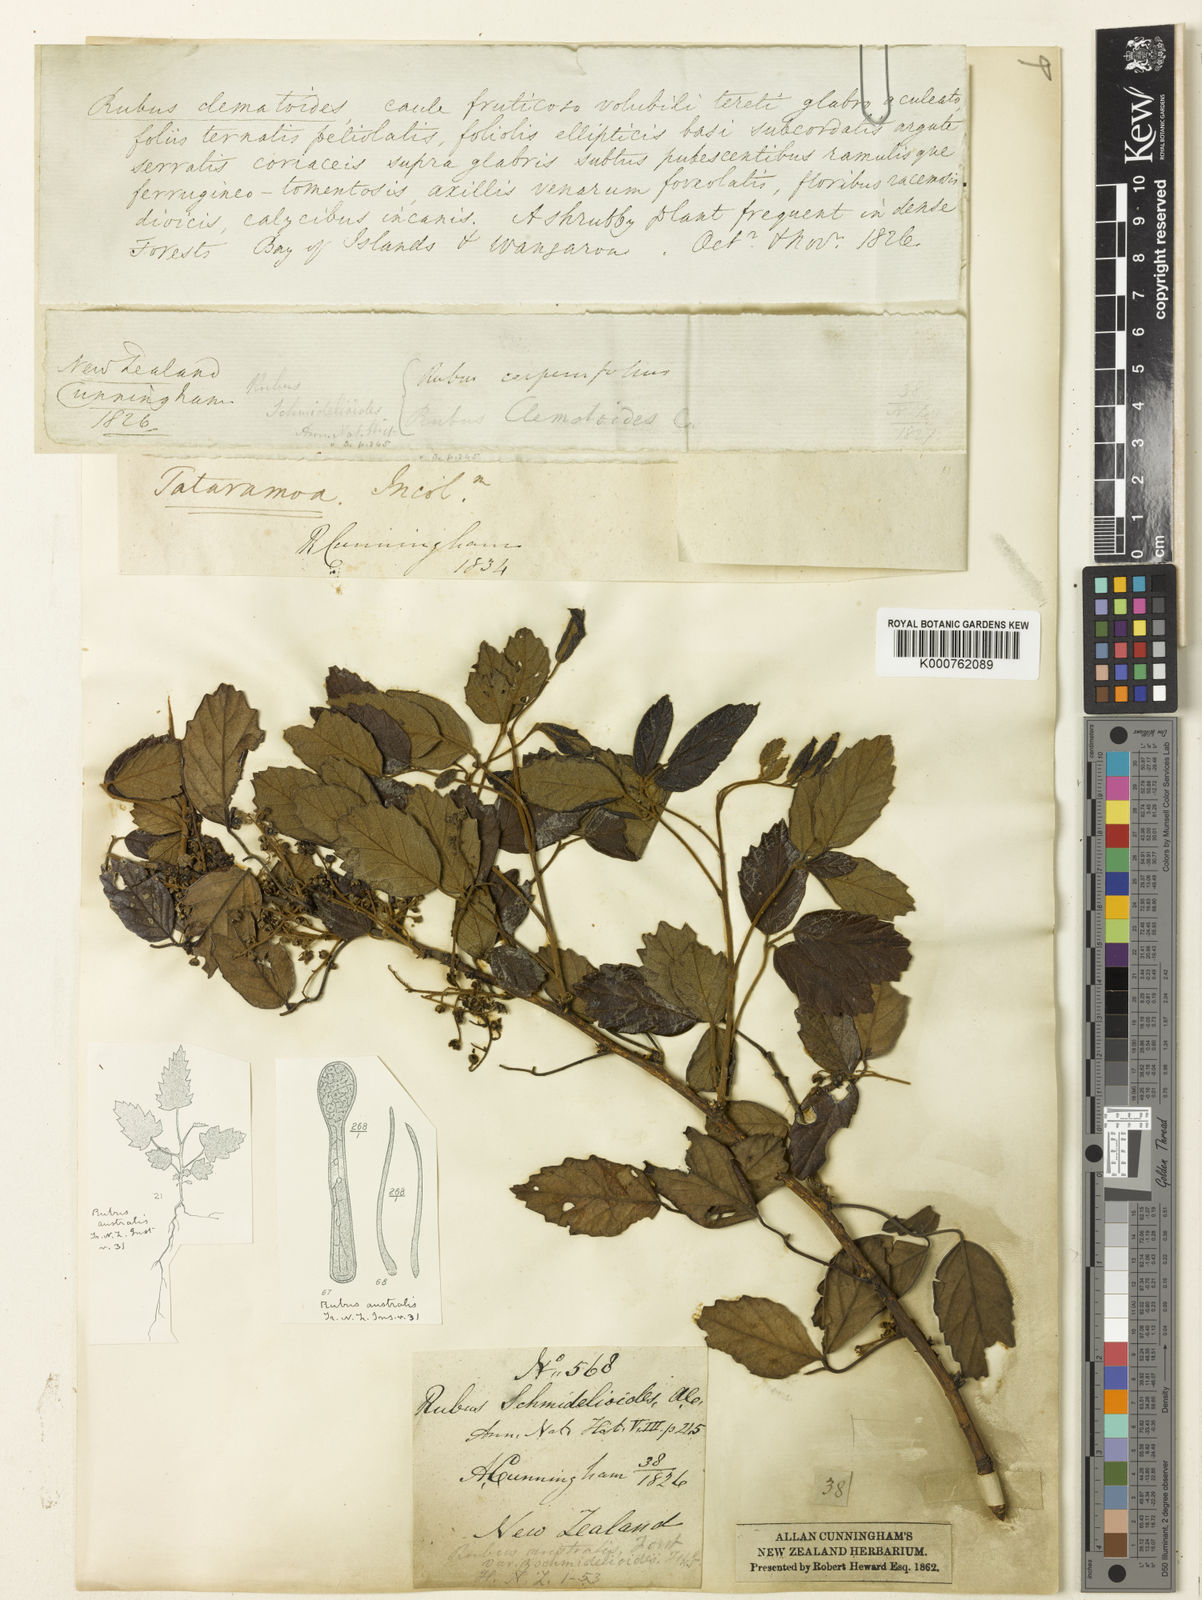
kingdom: Plantae
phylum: Tracheophyta
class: Magnoliopsida
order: Rosales
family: Rosaceae
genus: Rubus
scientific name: Rubus schmidelioides
